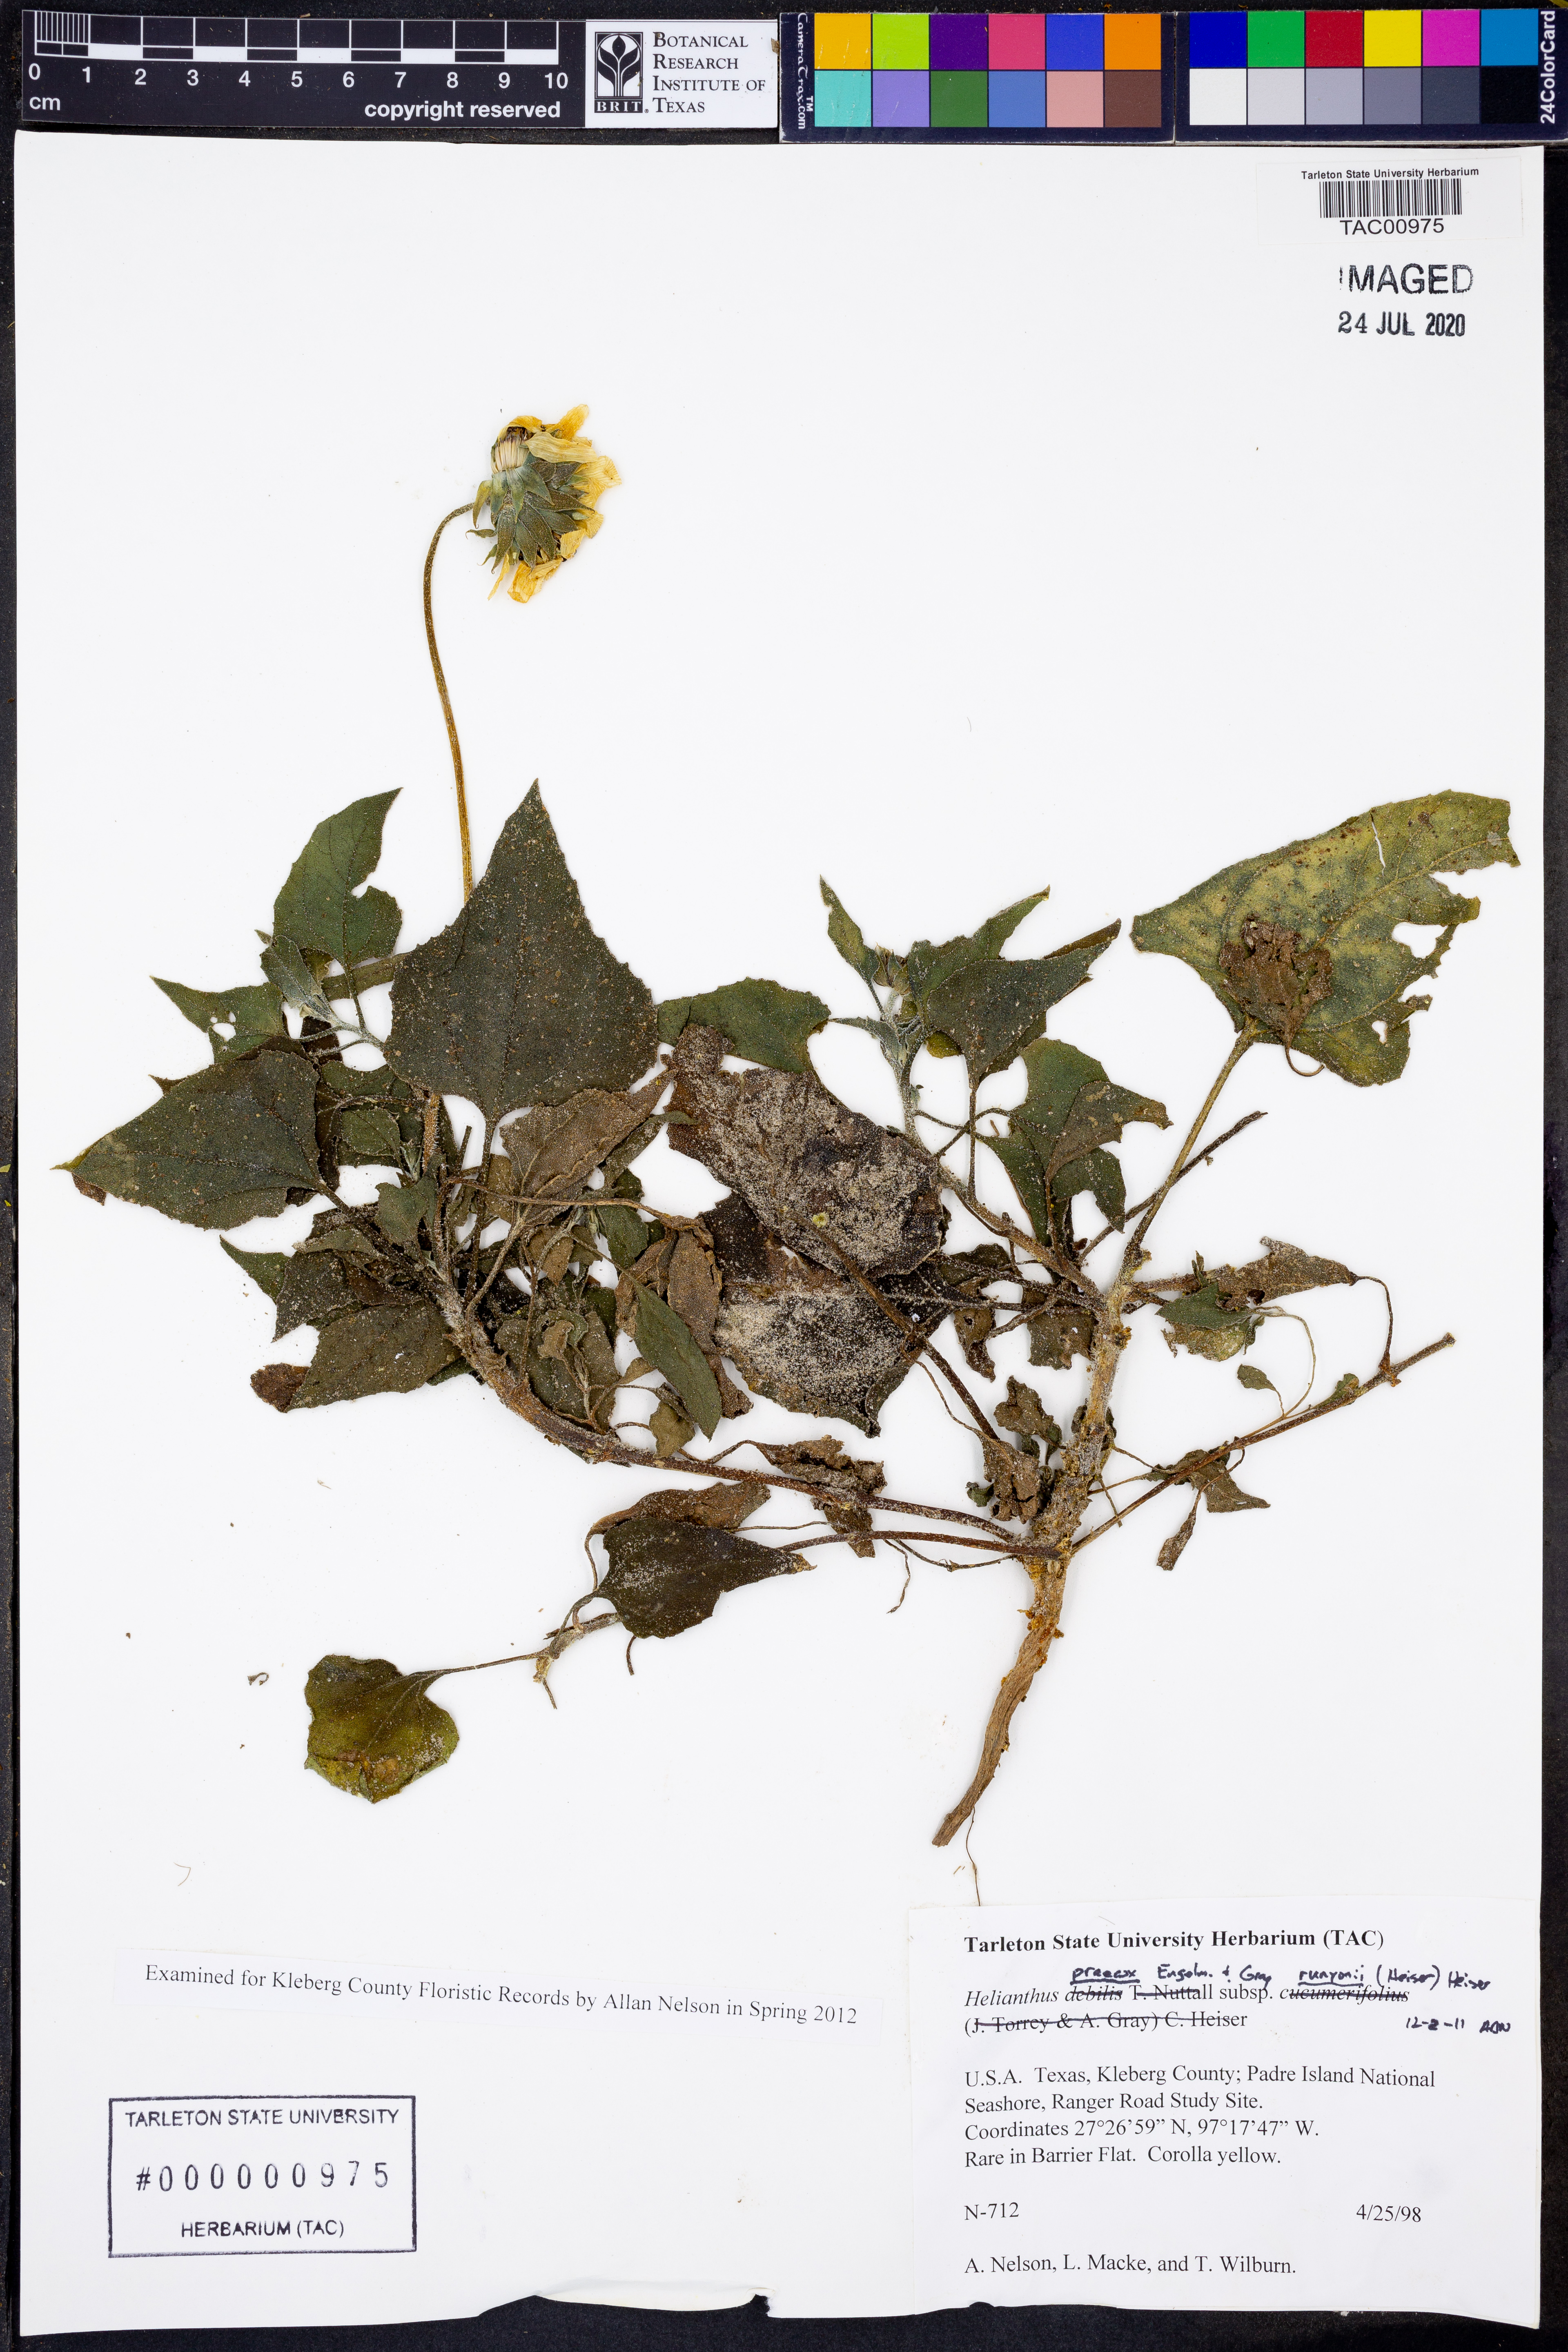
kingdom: Plantae
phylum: Tracheophyta
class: Magnoliopsida
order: Asterales
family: Asteraceae
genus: Helianthus
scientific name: Helianthus praecox
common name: Texas sunflower
